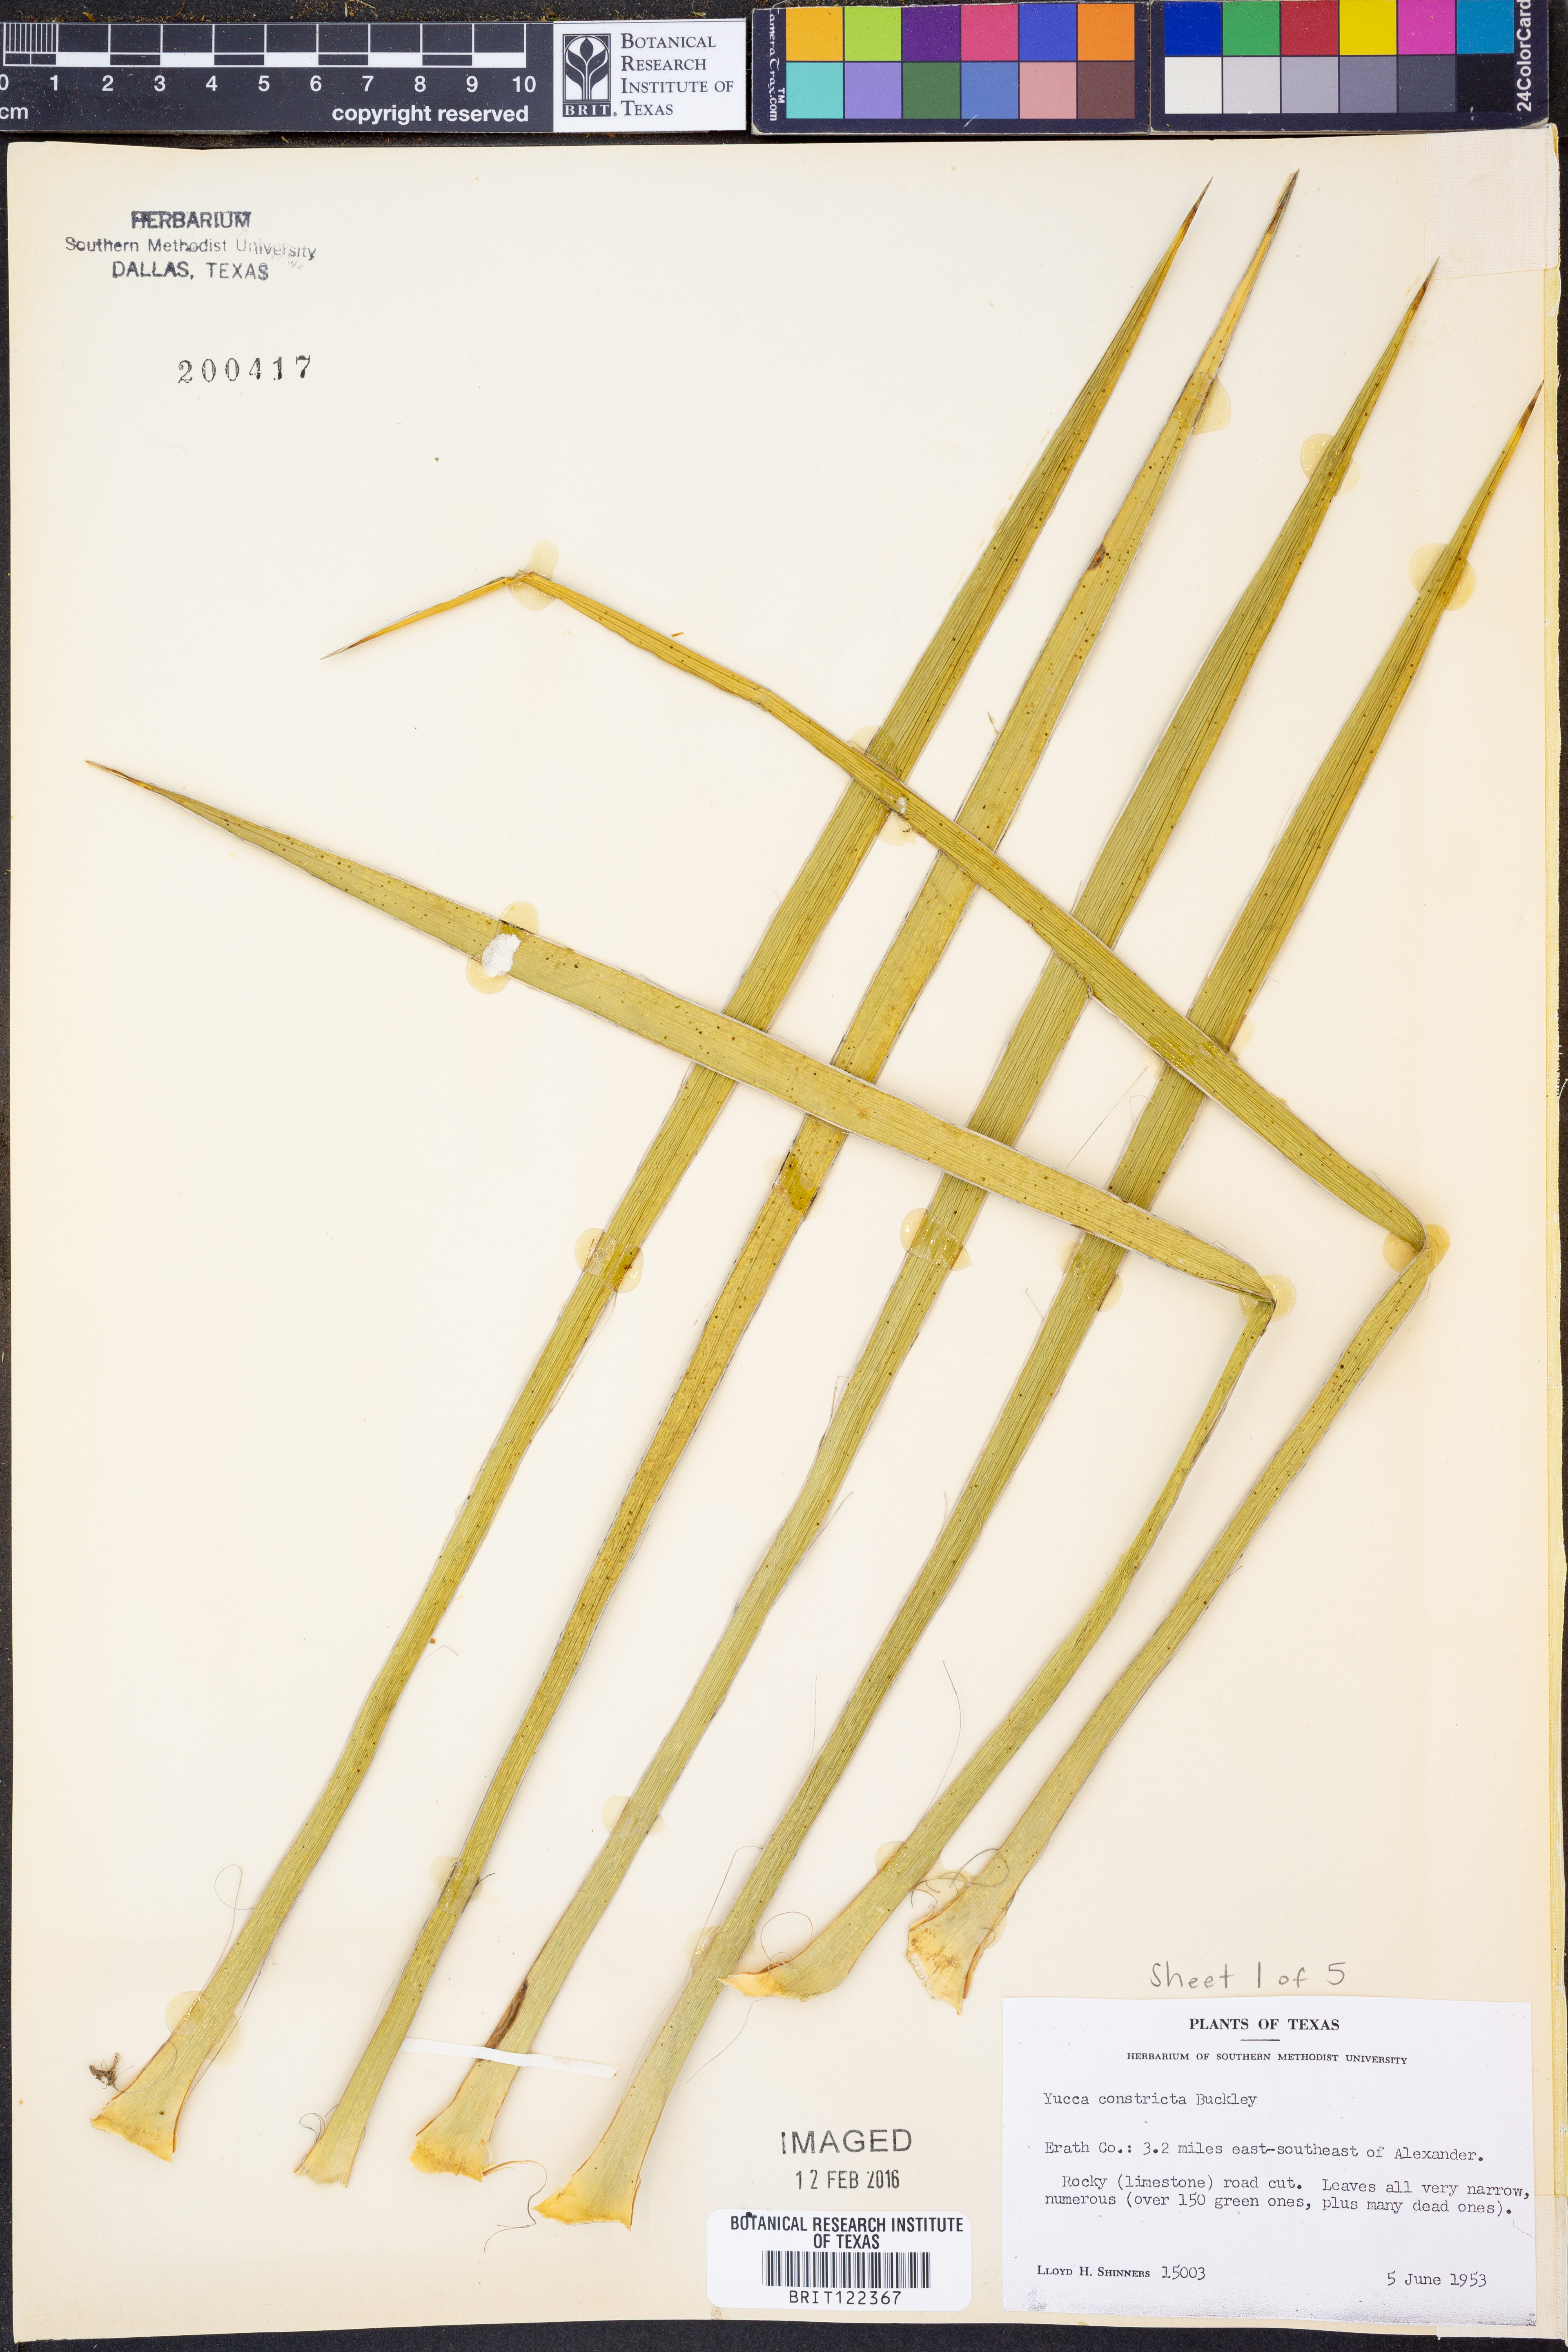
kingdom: Plantae
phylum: Tracheophyta
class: Liliopsida
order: Asparagales
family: Asparagaceae
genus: Yucca
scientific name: Yucca constricta
